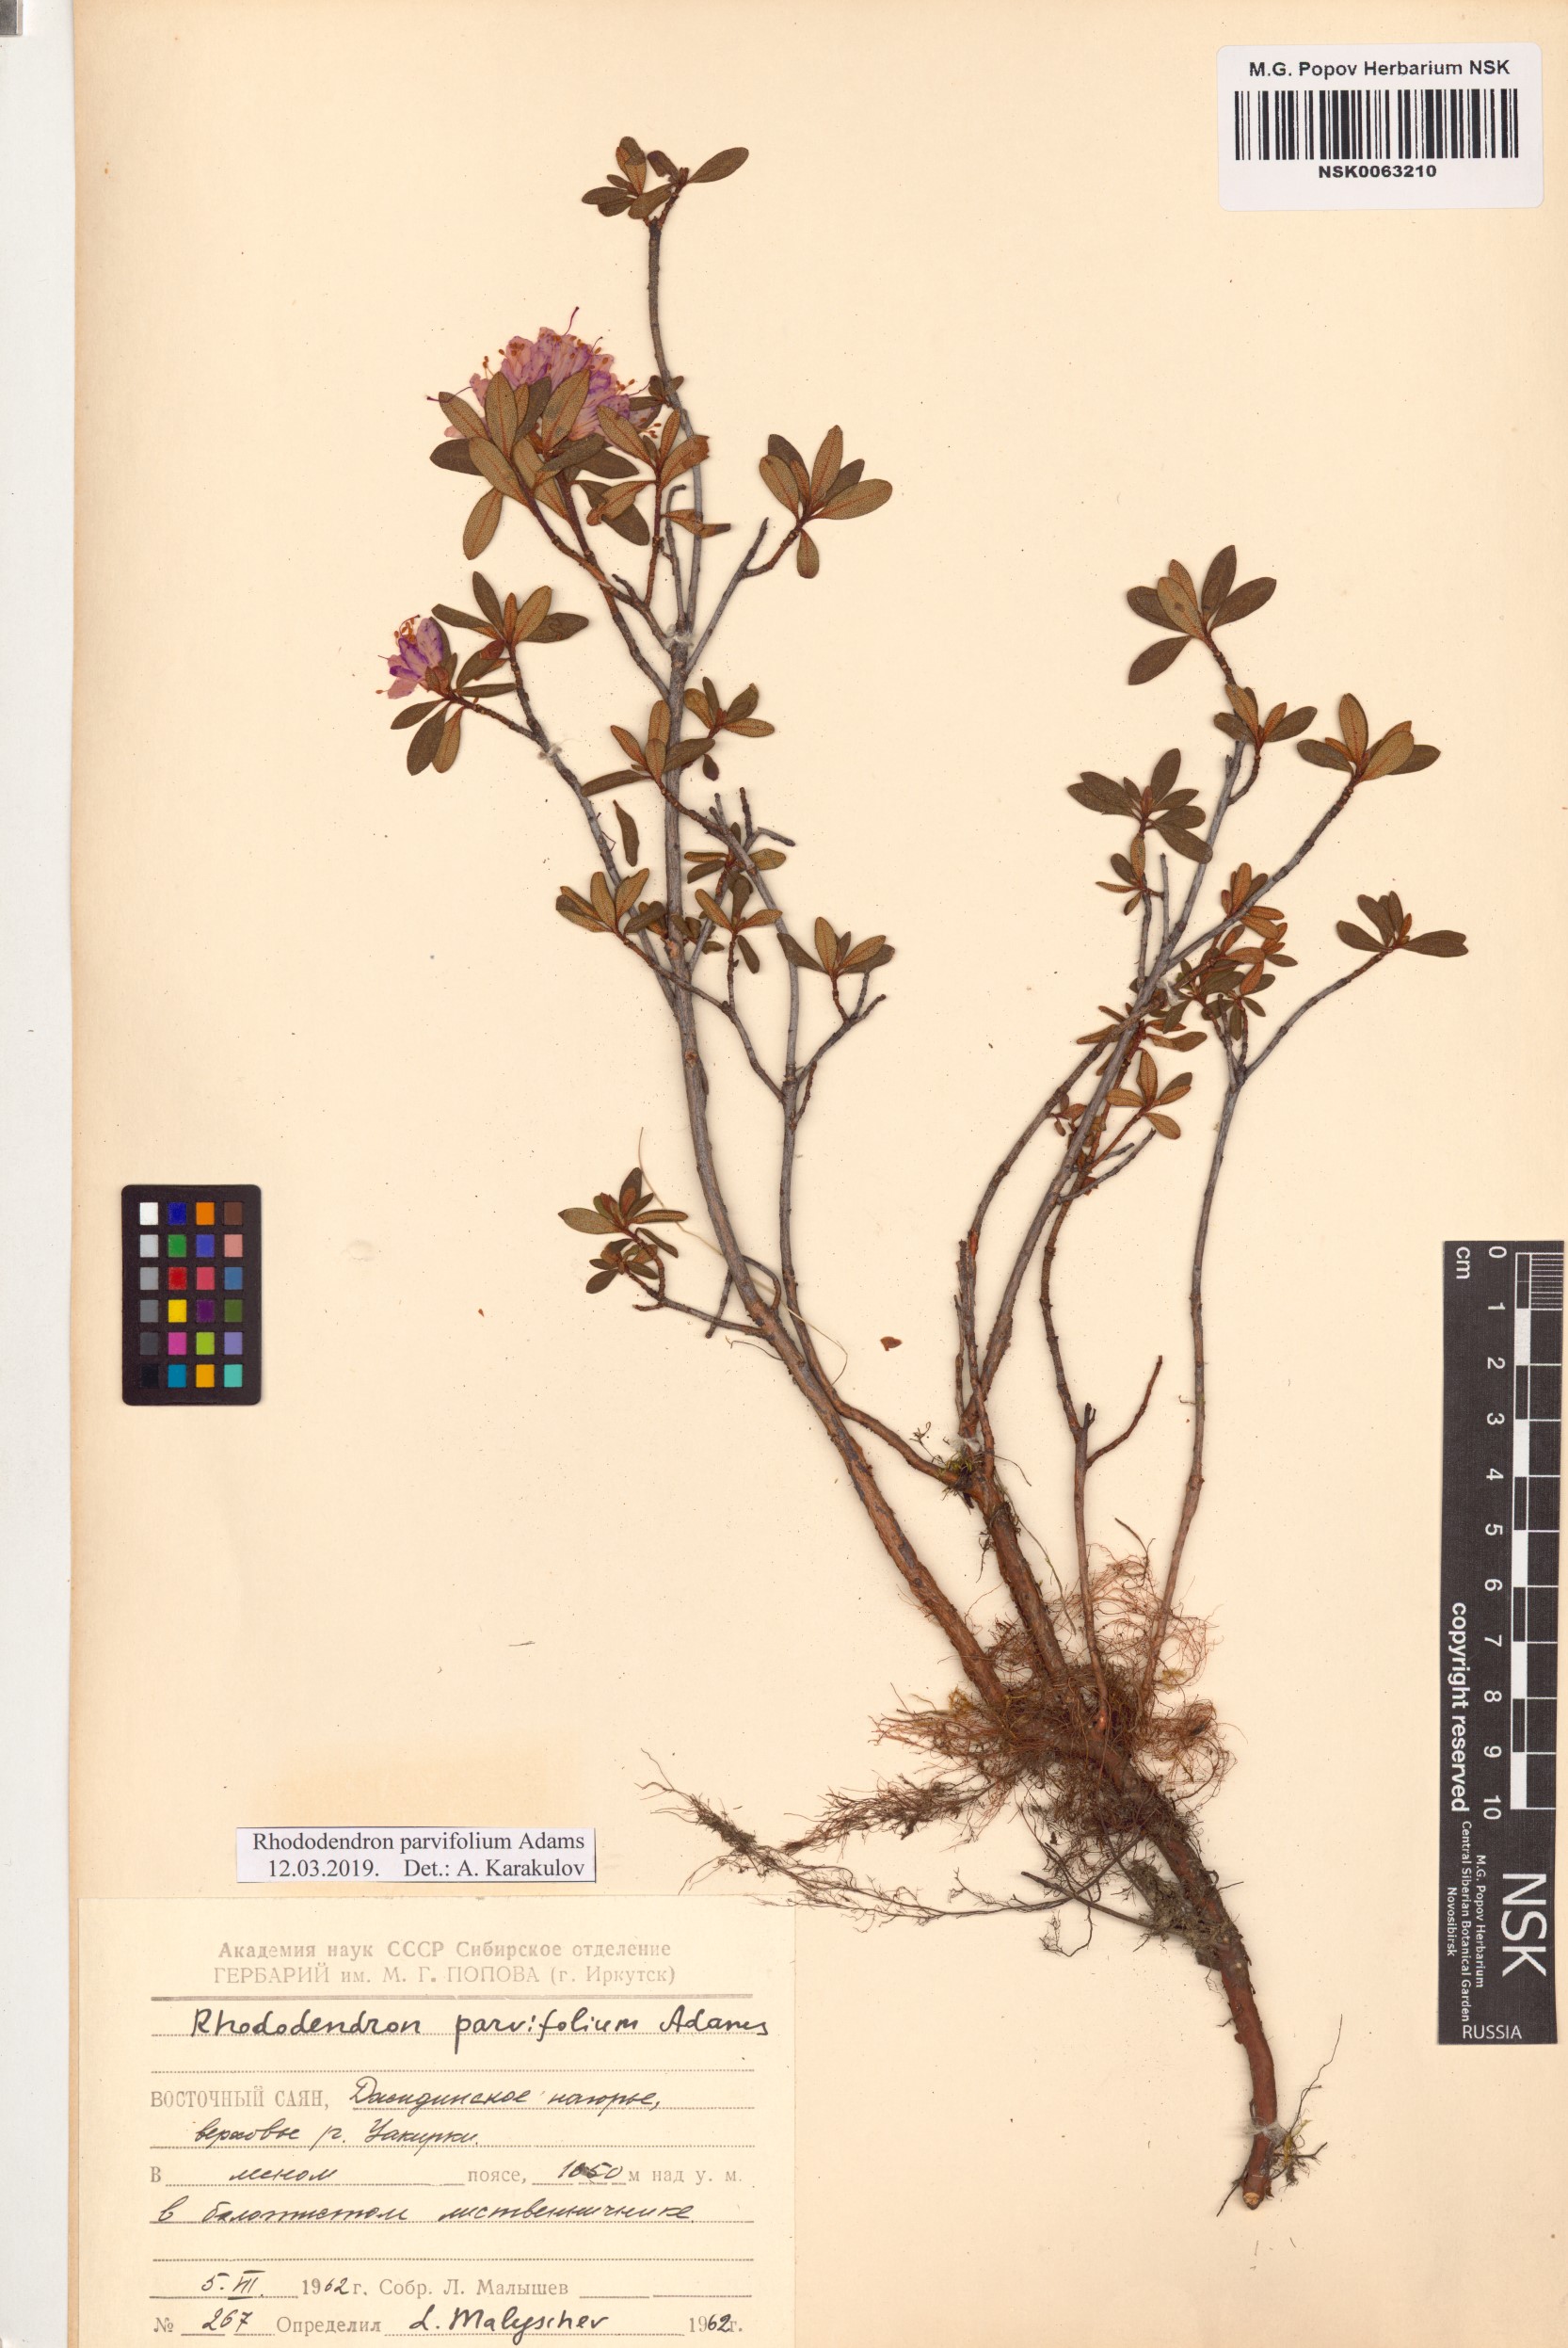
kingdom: Plantae
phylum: Tracheophyta
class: Magnoliopsida
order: Ericales
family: Ericaceae
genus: Rhododendron
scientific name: Rhododendron parvifolium
